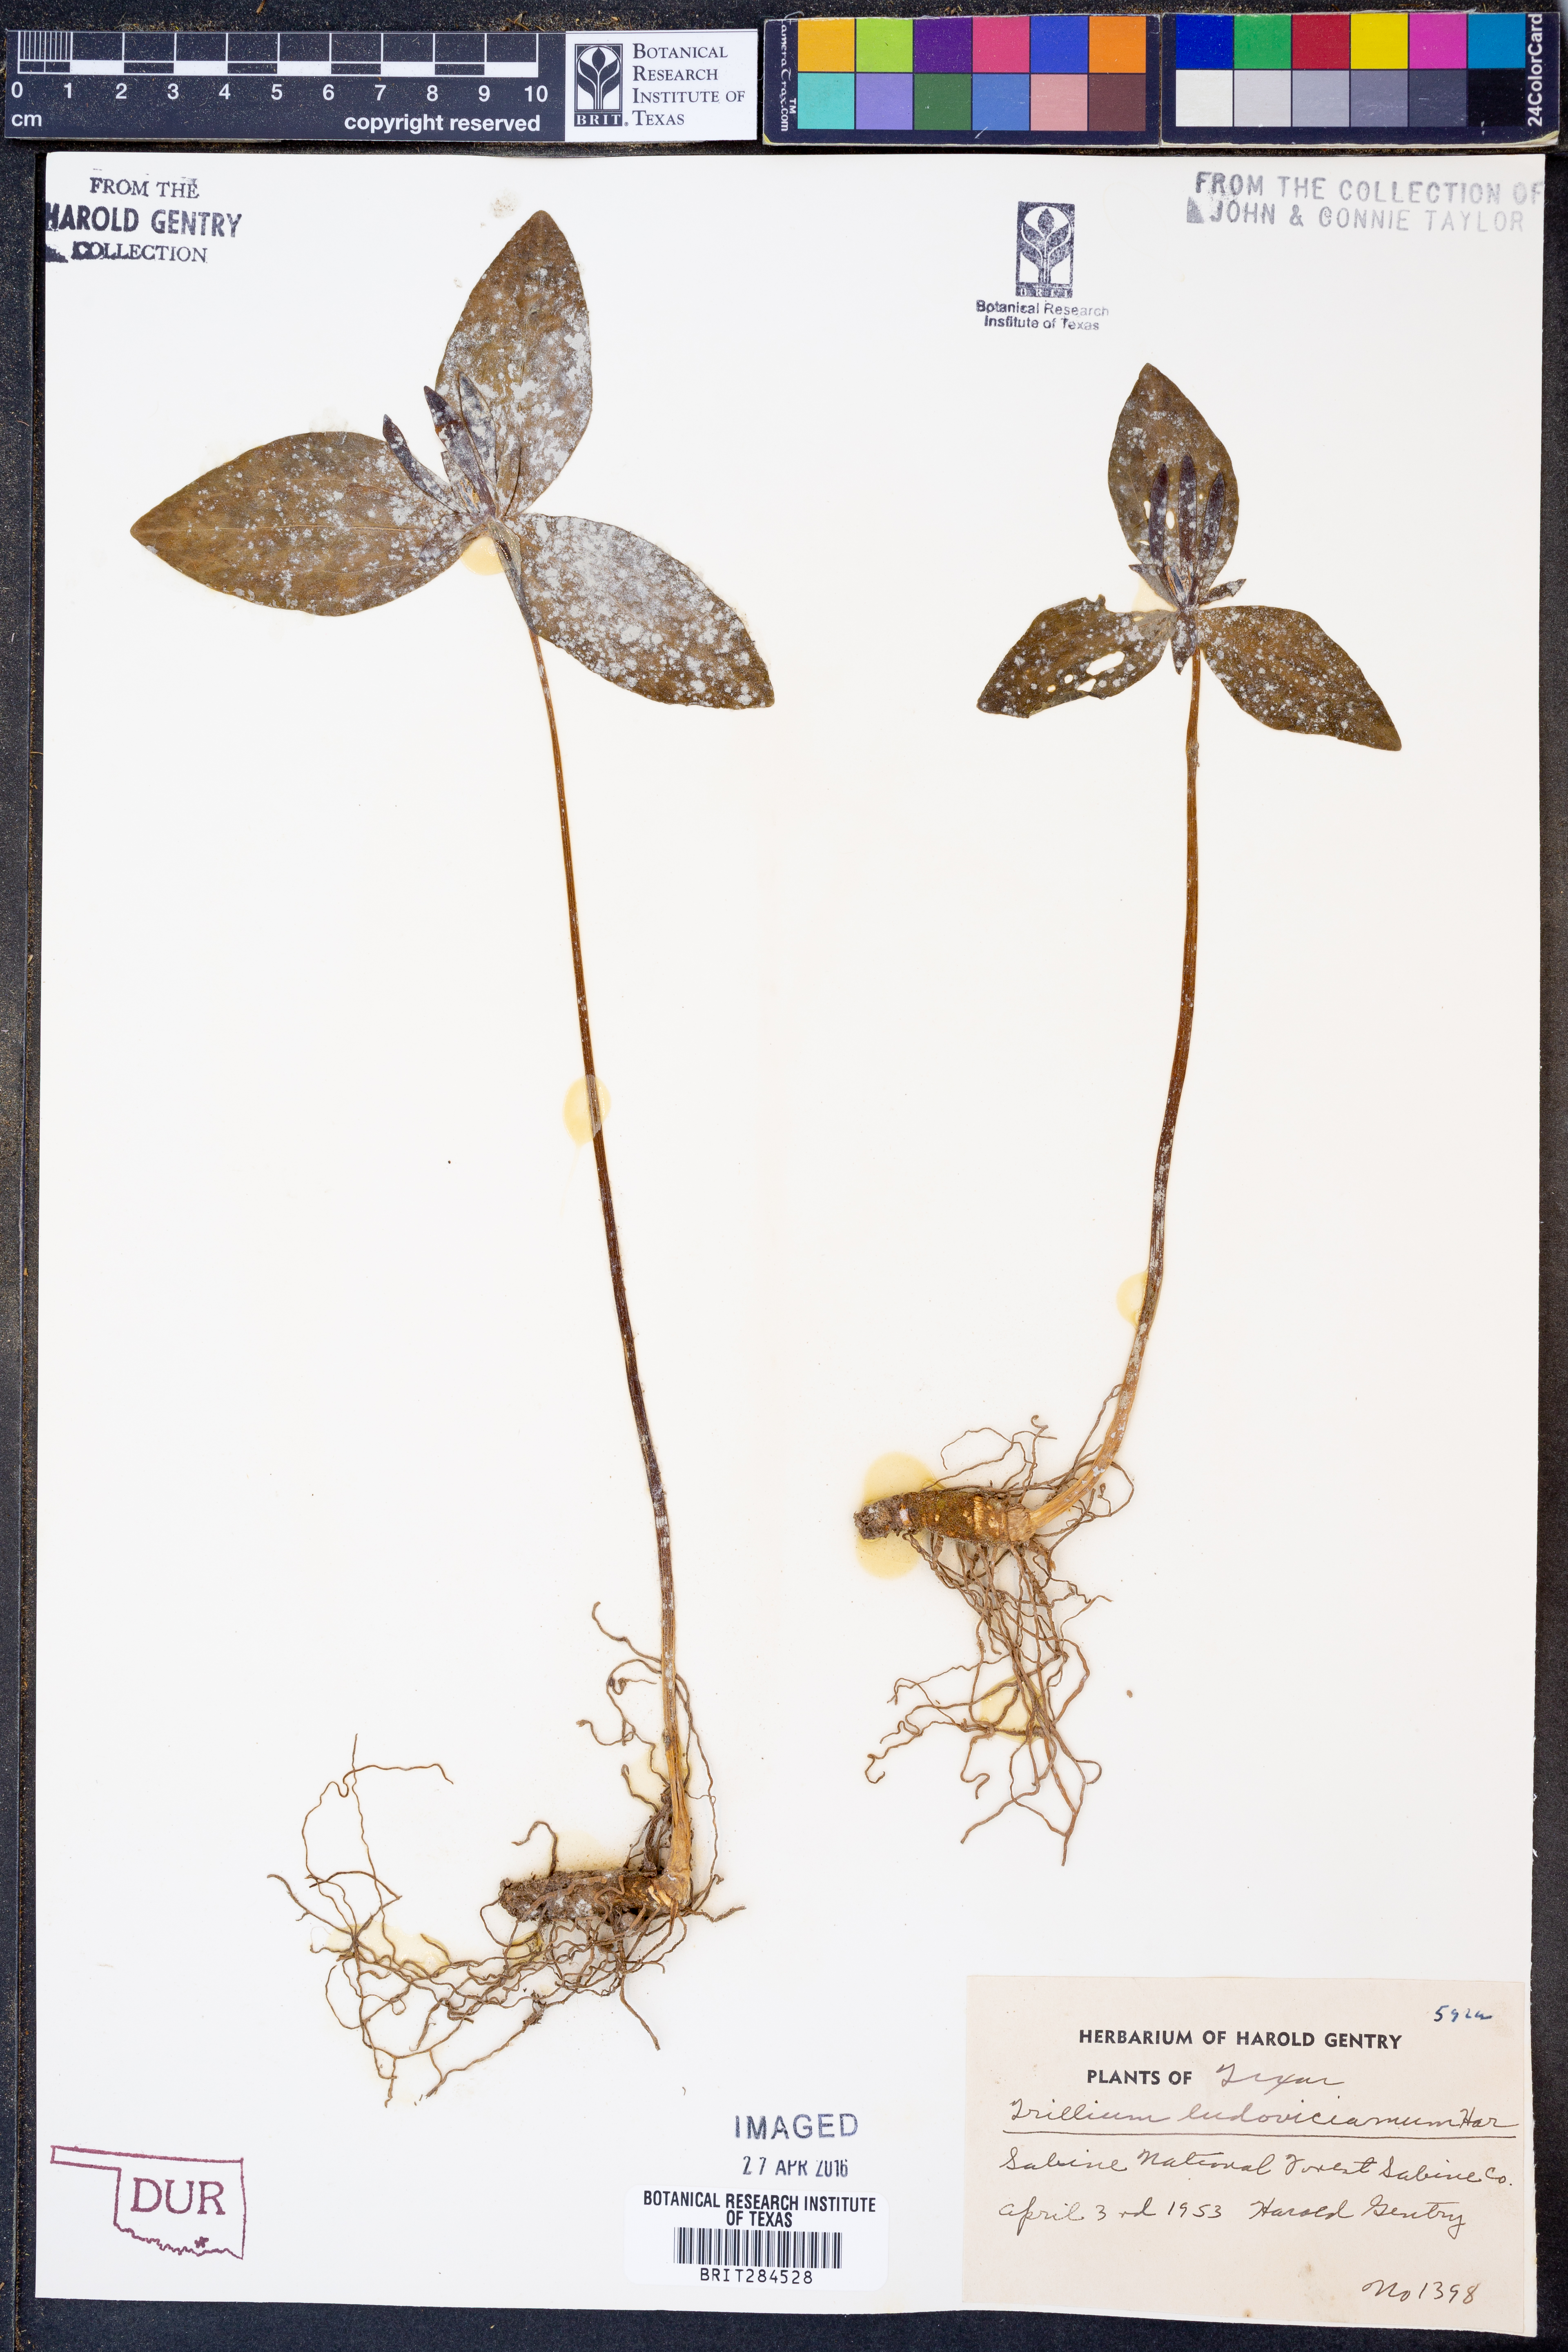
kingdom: Plantae
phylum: Tracheophyta
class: Liliopsida
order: Liliales
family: Melanthiaceae
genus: Trillium
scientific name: Trillium ludovicianum
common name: Louisiana toadshade
